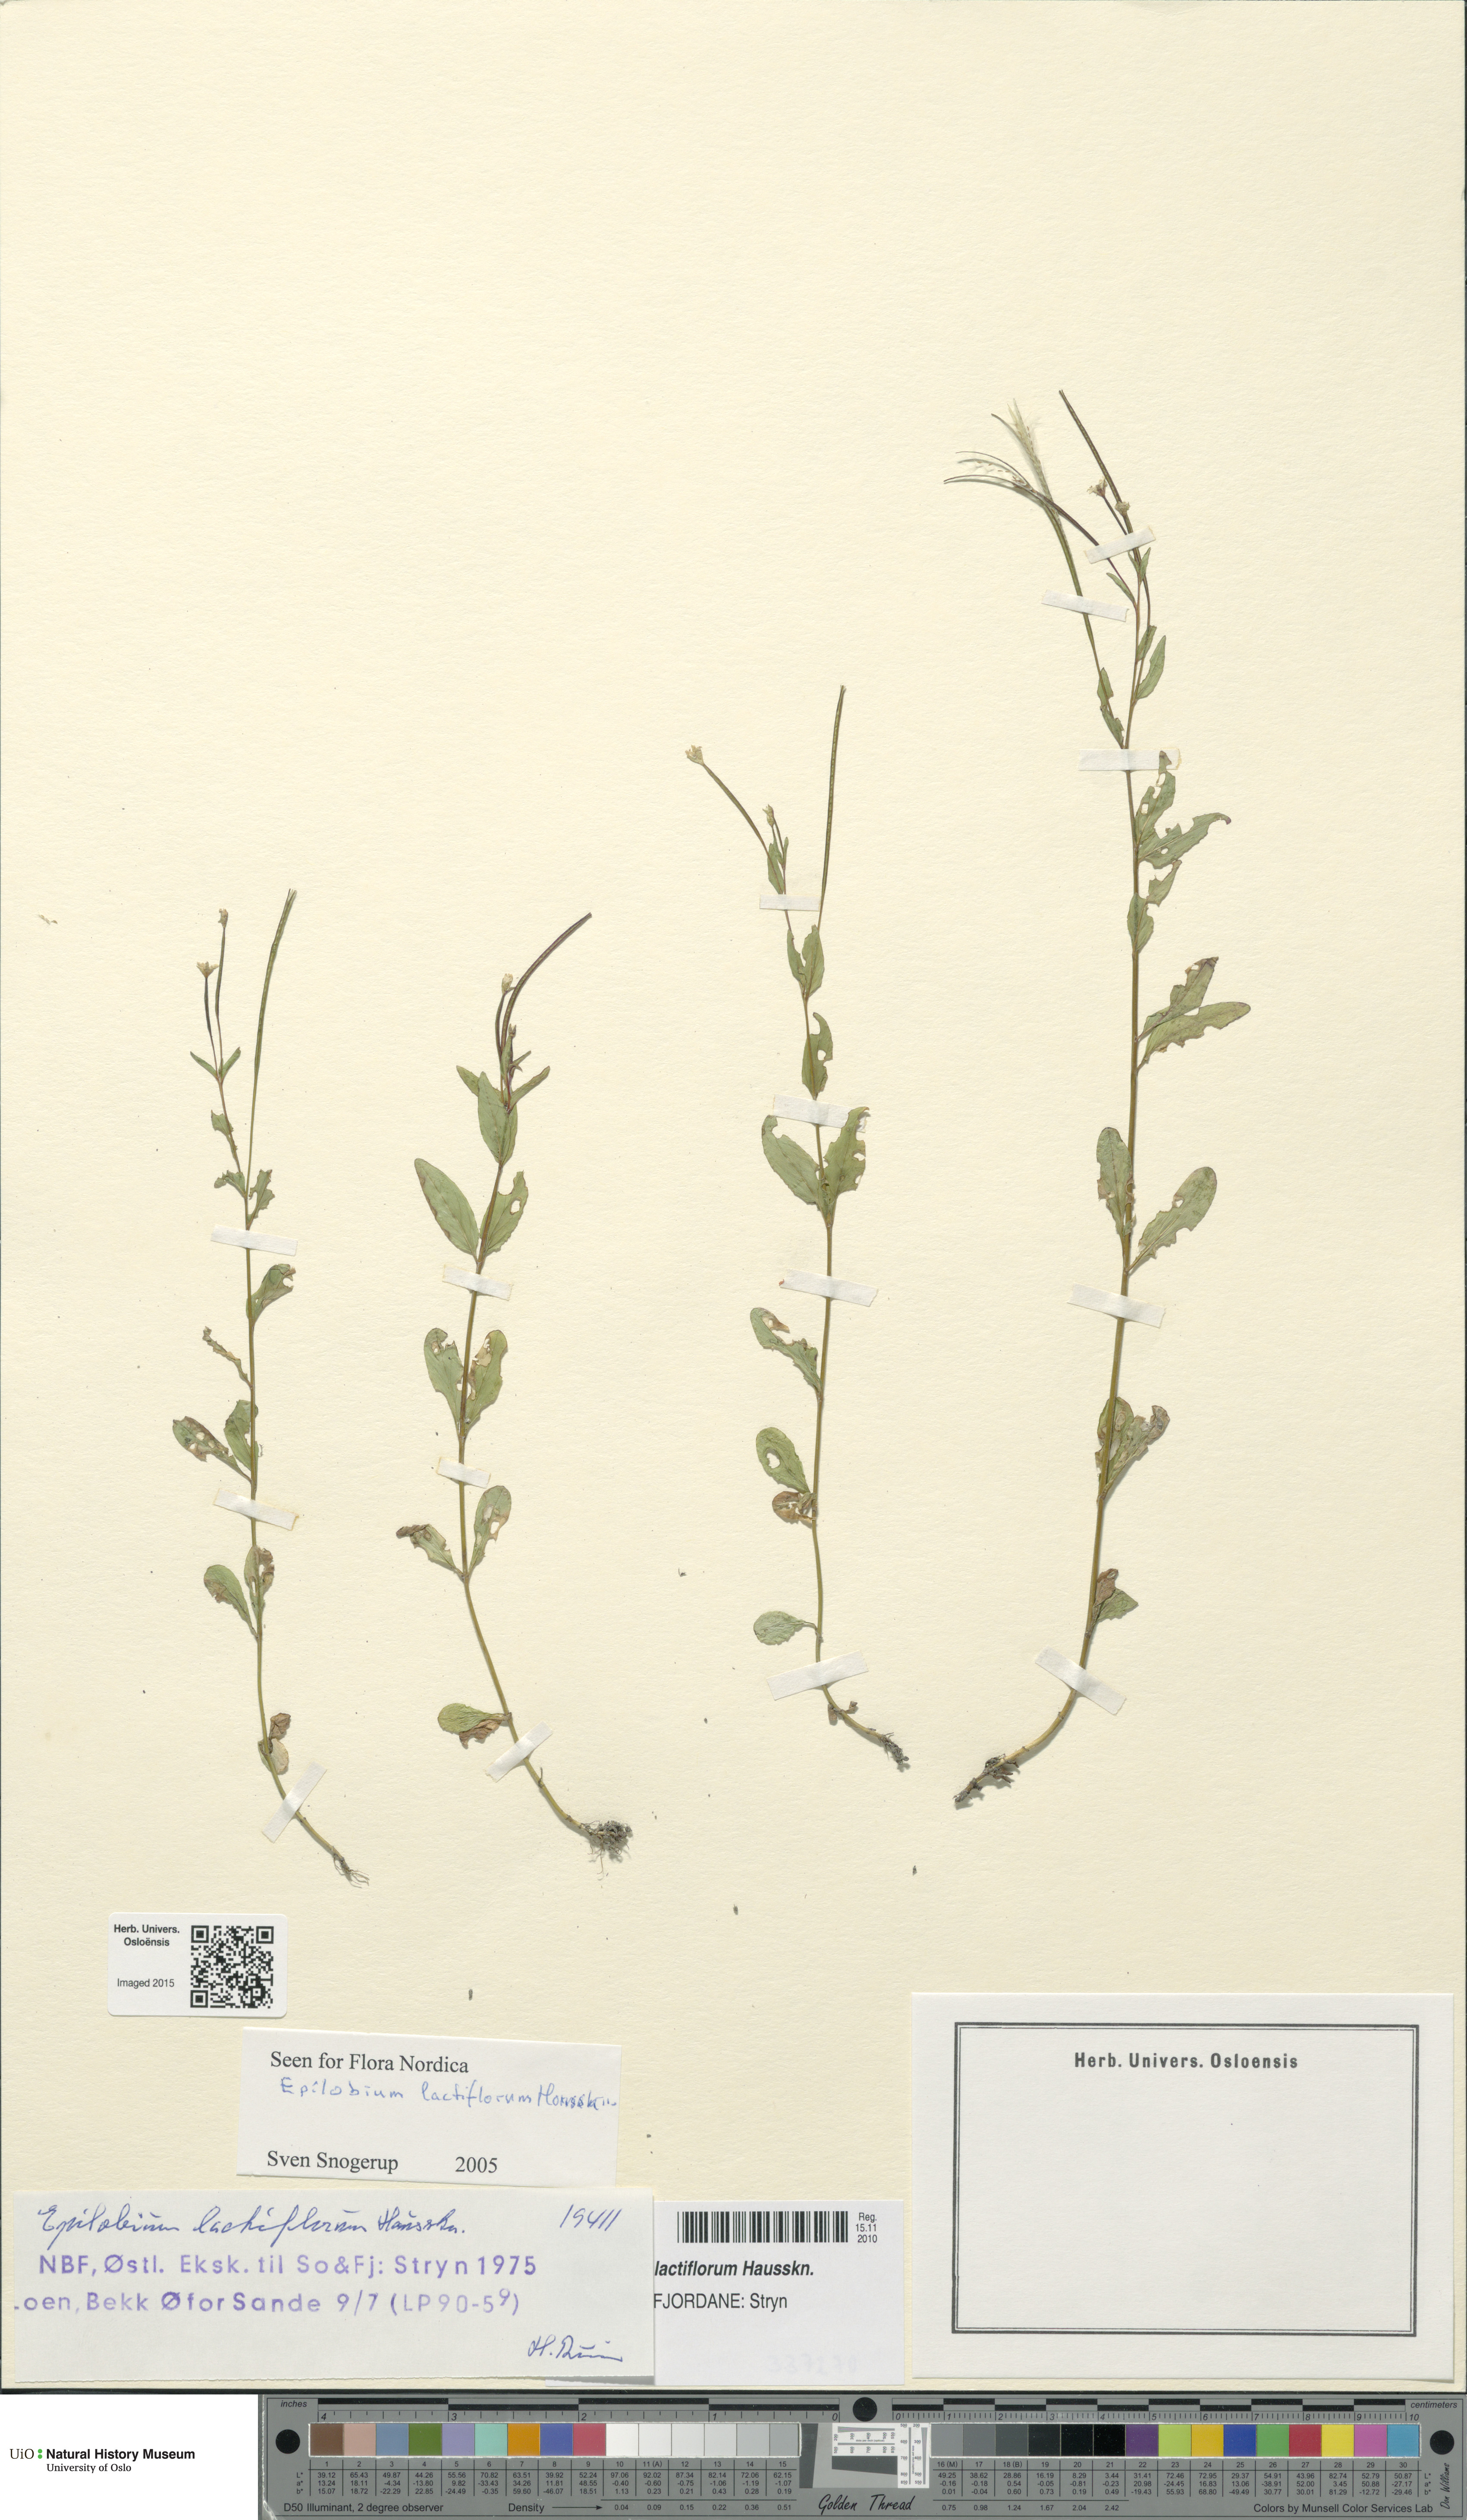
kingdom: Plantae
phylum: Tracheophyta
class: Magnoliopsida
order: Myrtales
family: Onagraceae
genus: Epilobium
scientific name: Epilobium lactiflorum
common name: Milkflower willowherb
